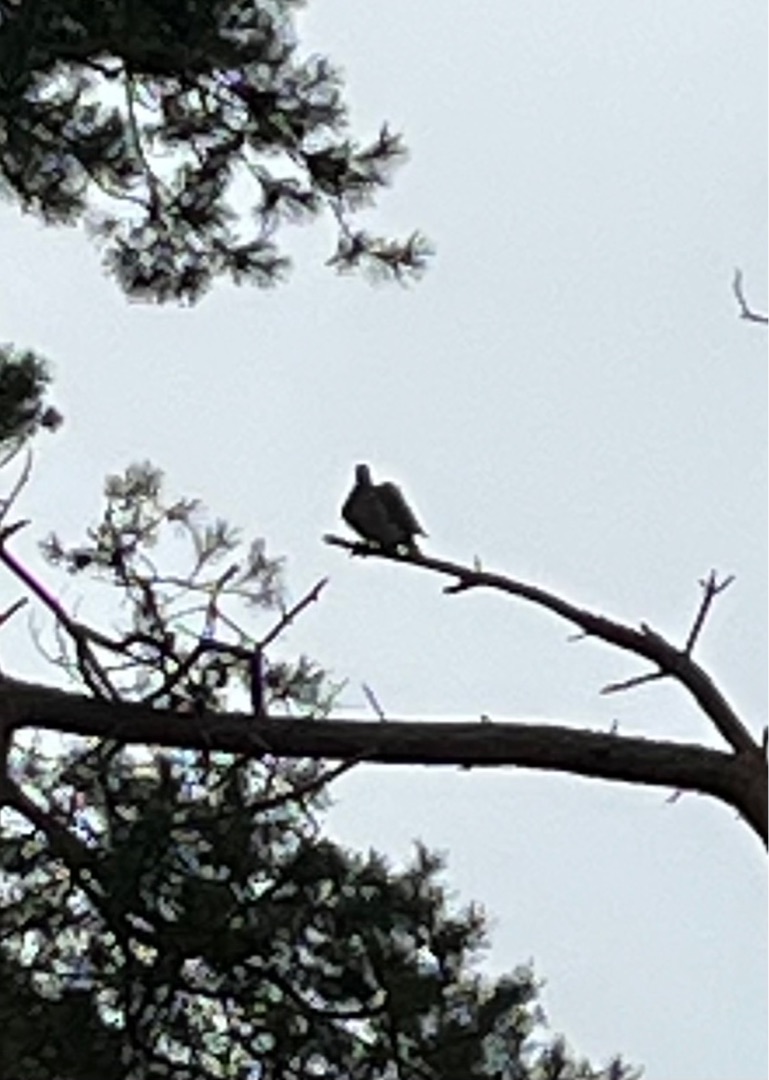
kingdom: Animalia
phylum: Chordata
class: Aves
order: Columbiformes
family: Columbidae
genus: Columba
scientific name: Columba palumbus
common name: Ringdue
